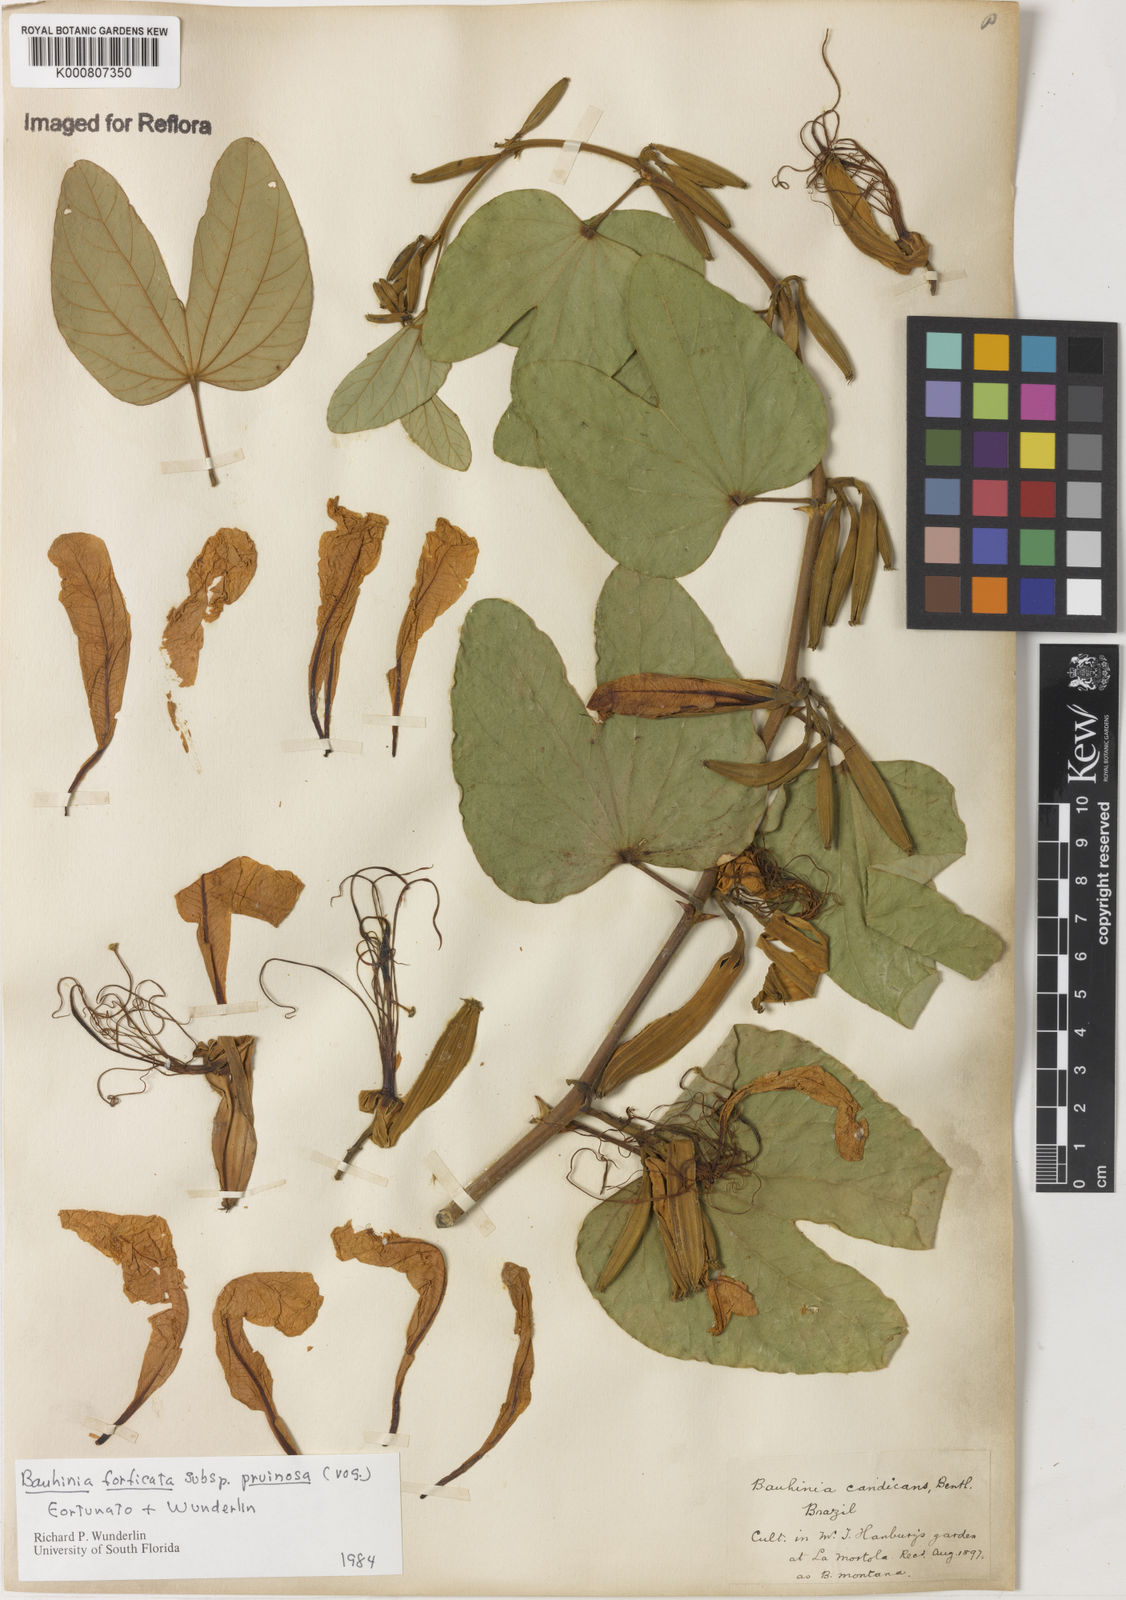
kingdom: Plantae
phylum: Tracheophyta
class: Magnoliopsida
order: Fabales
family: Fabaceae
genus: Bauhinia
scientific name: Bauhinia forficata
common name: Orchid tree
